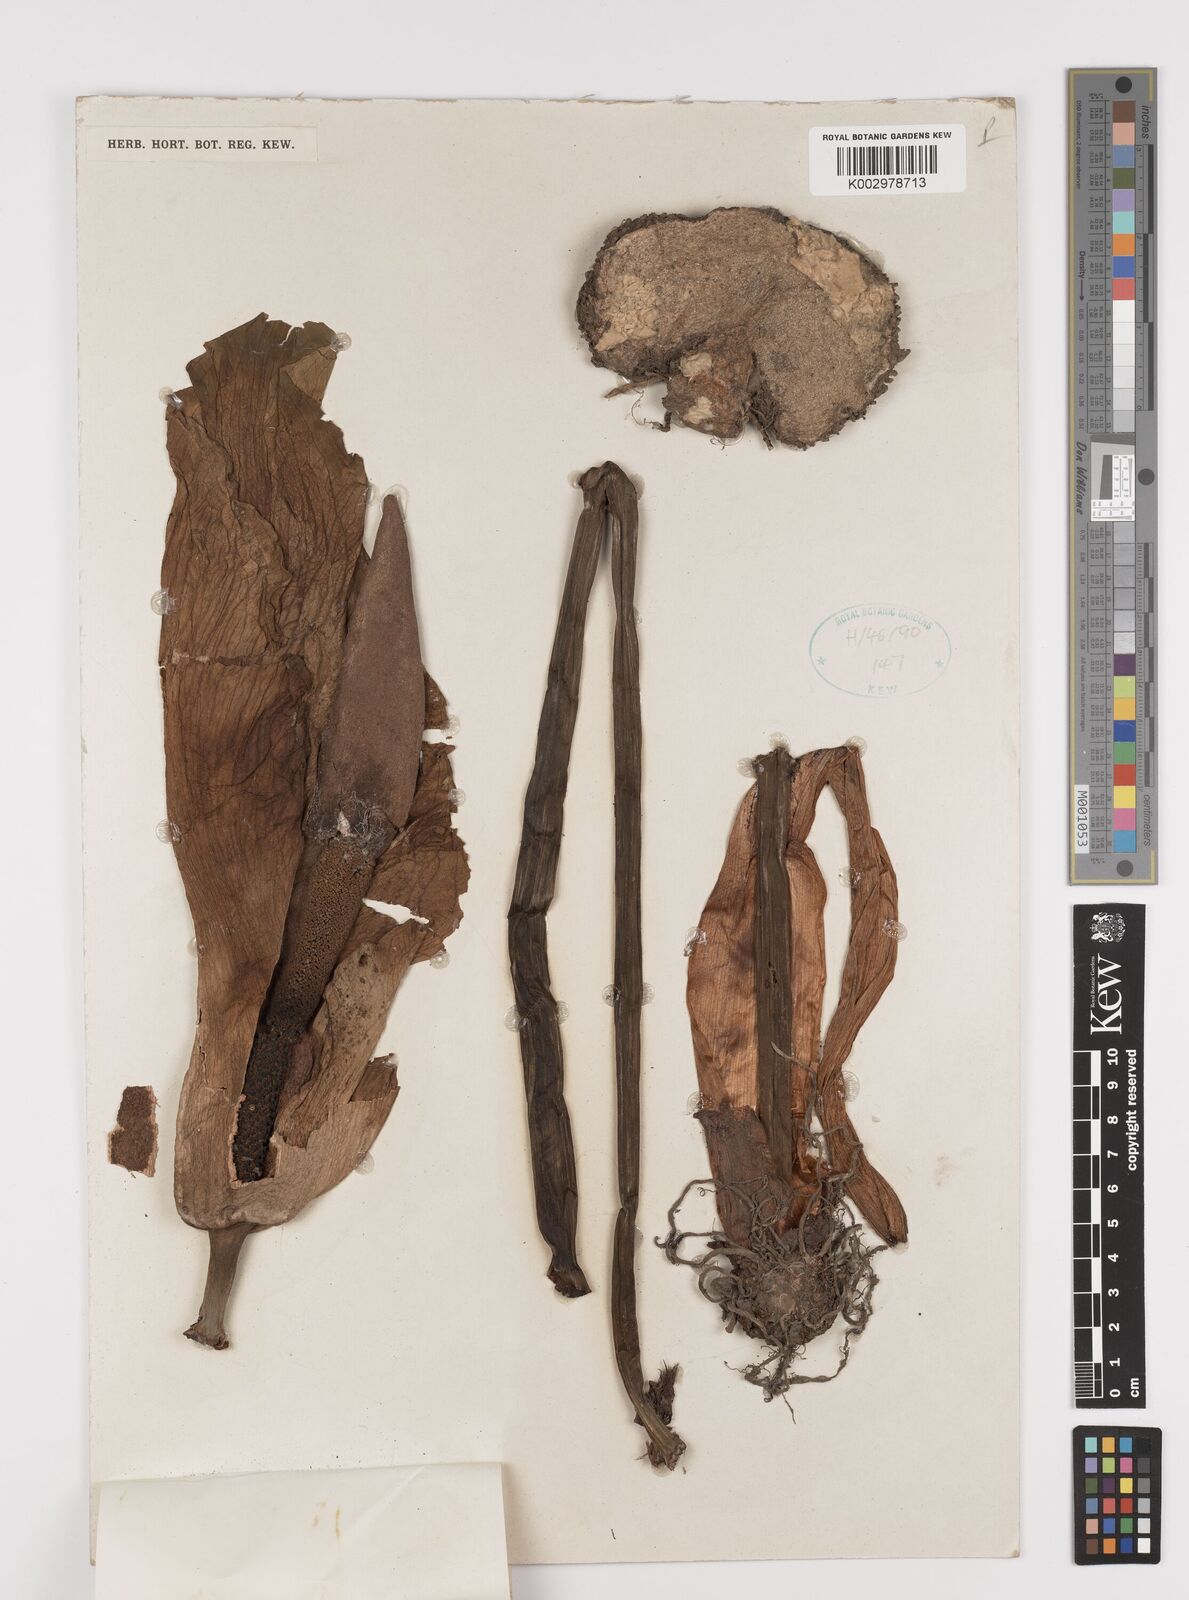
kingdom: Plantae
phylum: Tracheophyta
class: Liliopsida
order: Alismatales
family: Araceae
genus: Amorphophallus
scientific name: Amorphophallus muelleri
